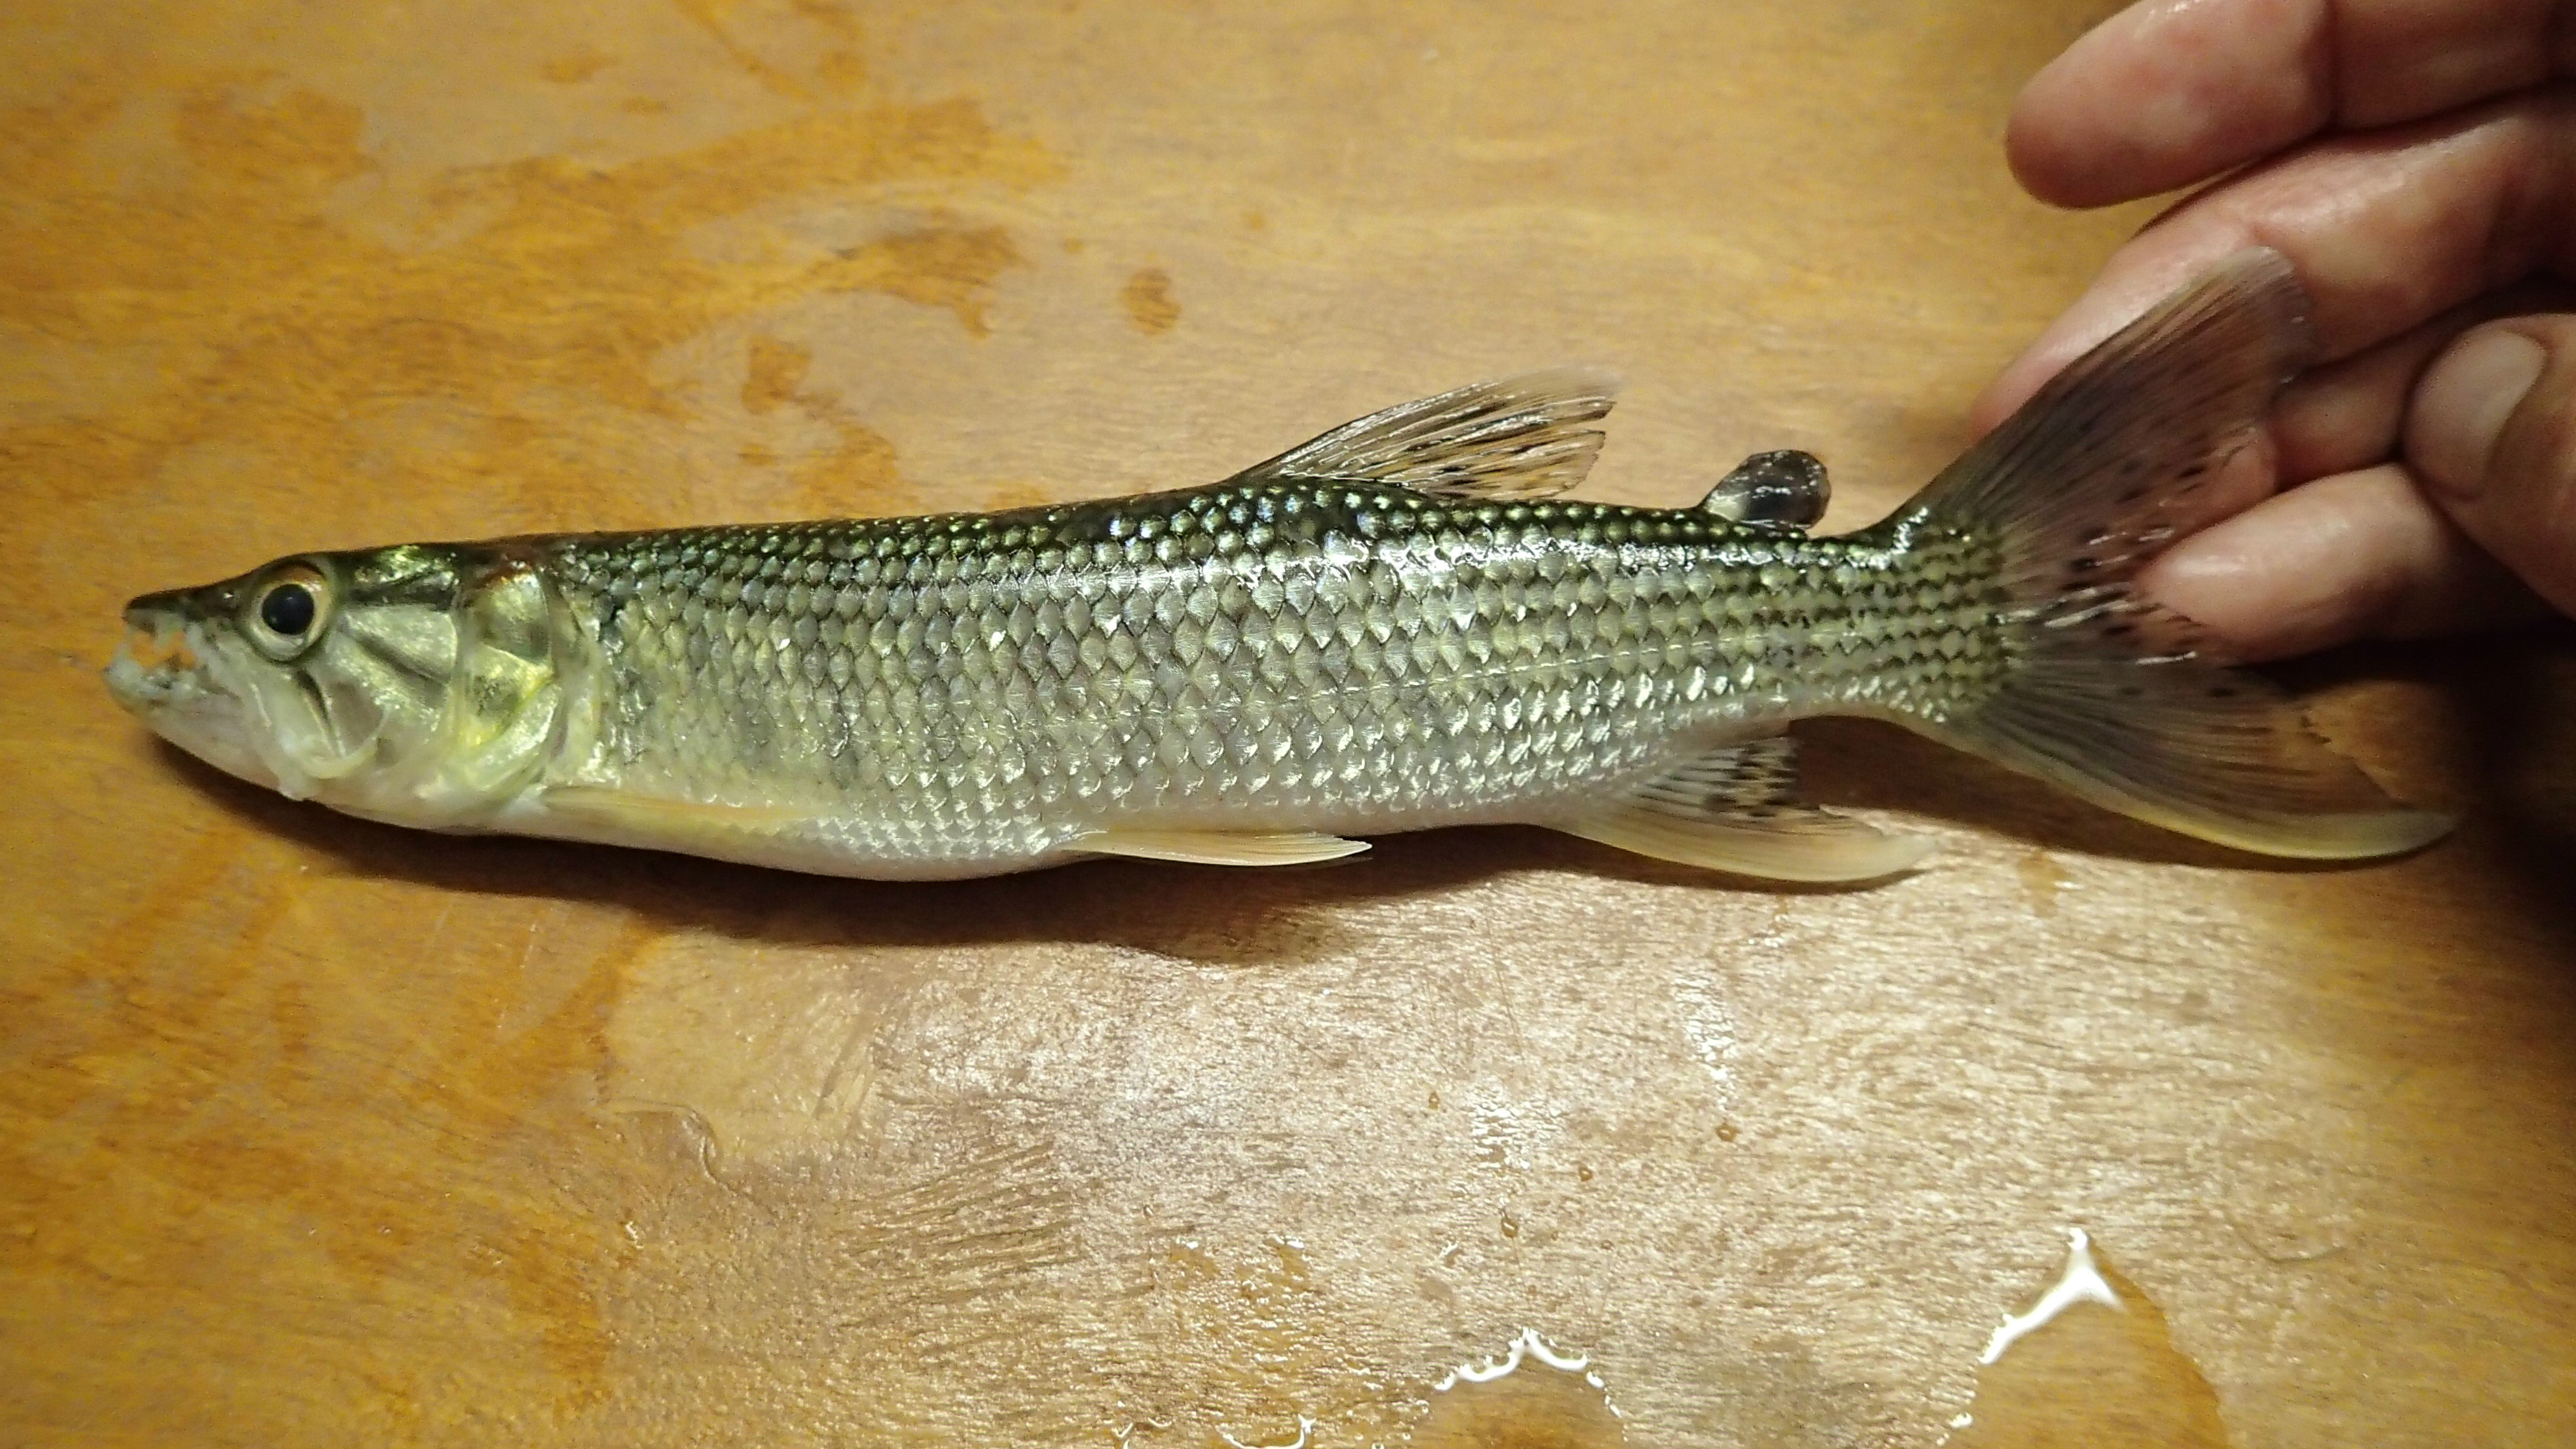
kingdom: Animalia
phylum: Chordata
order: Characiformes
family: Hepsetidae
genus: Hepsetus
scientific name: Hepsetus
